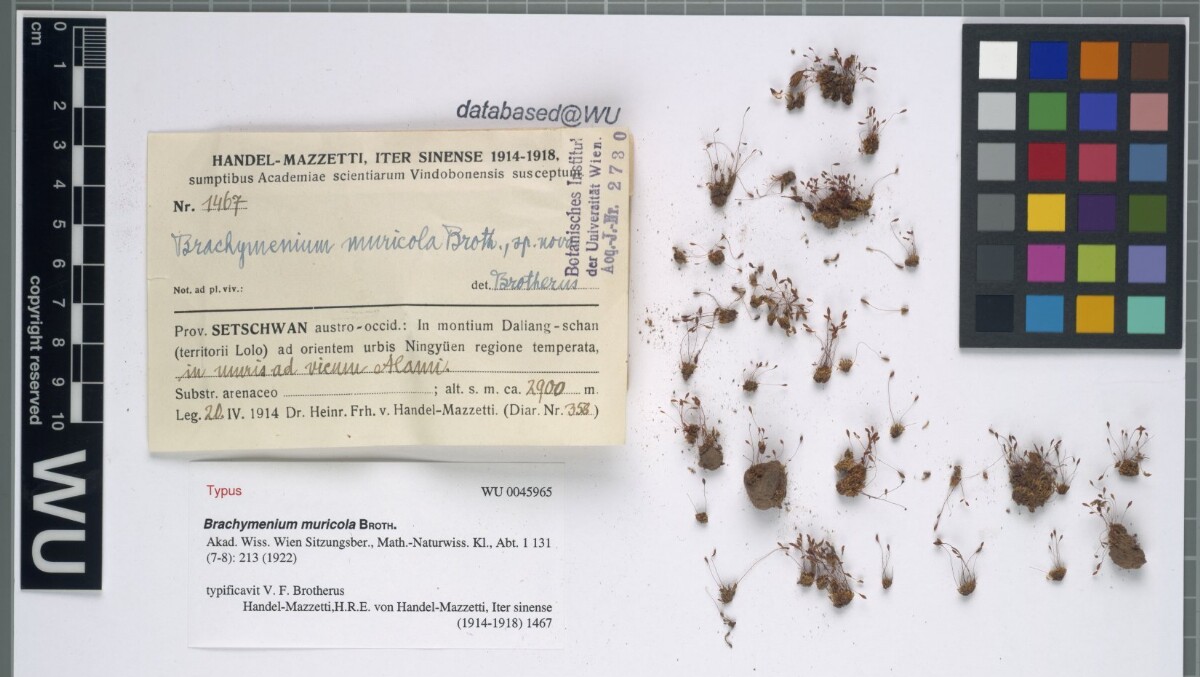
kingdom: Plantae
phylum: Bryophyta
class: Bryopsida
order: Bryales
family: Bryaceae
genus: Brachymenium
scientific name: Brachymenium muricola
